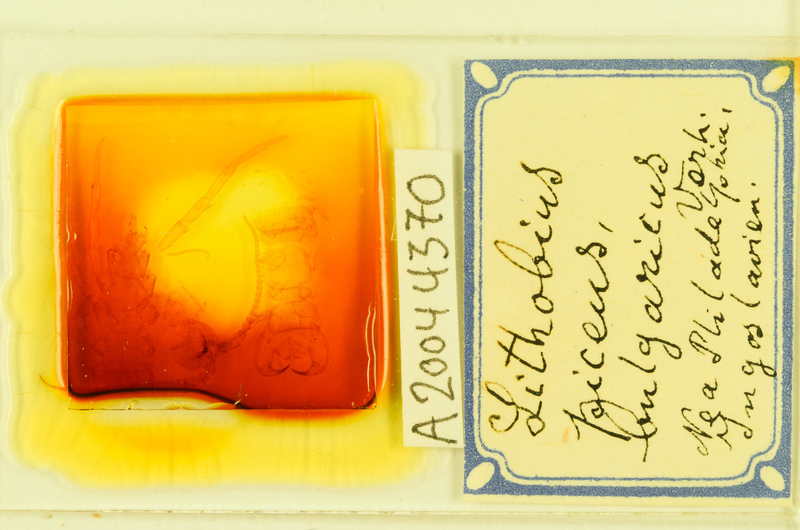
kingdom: Animalia
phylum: Arthropoda
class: Chilopoda
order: Lithobiomorpha
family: Lithobiidae
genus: Lithobius
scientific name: Lithobius piceus
